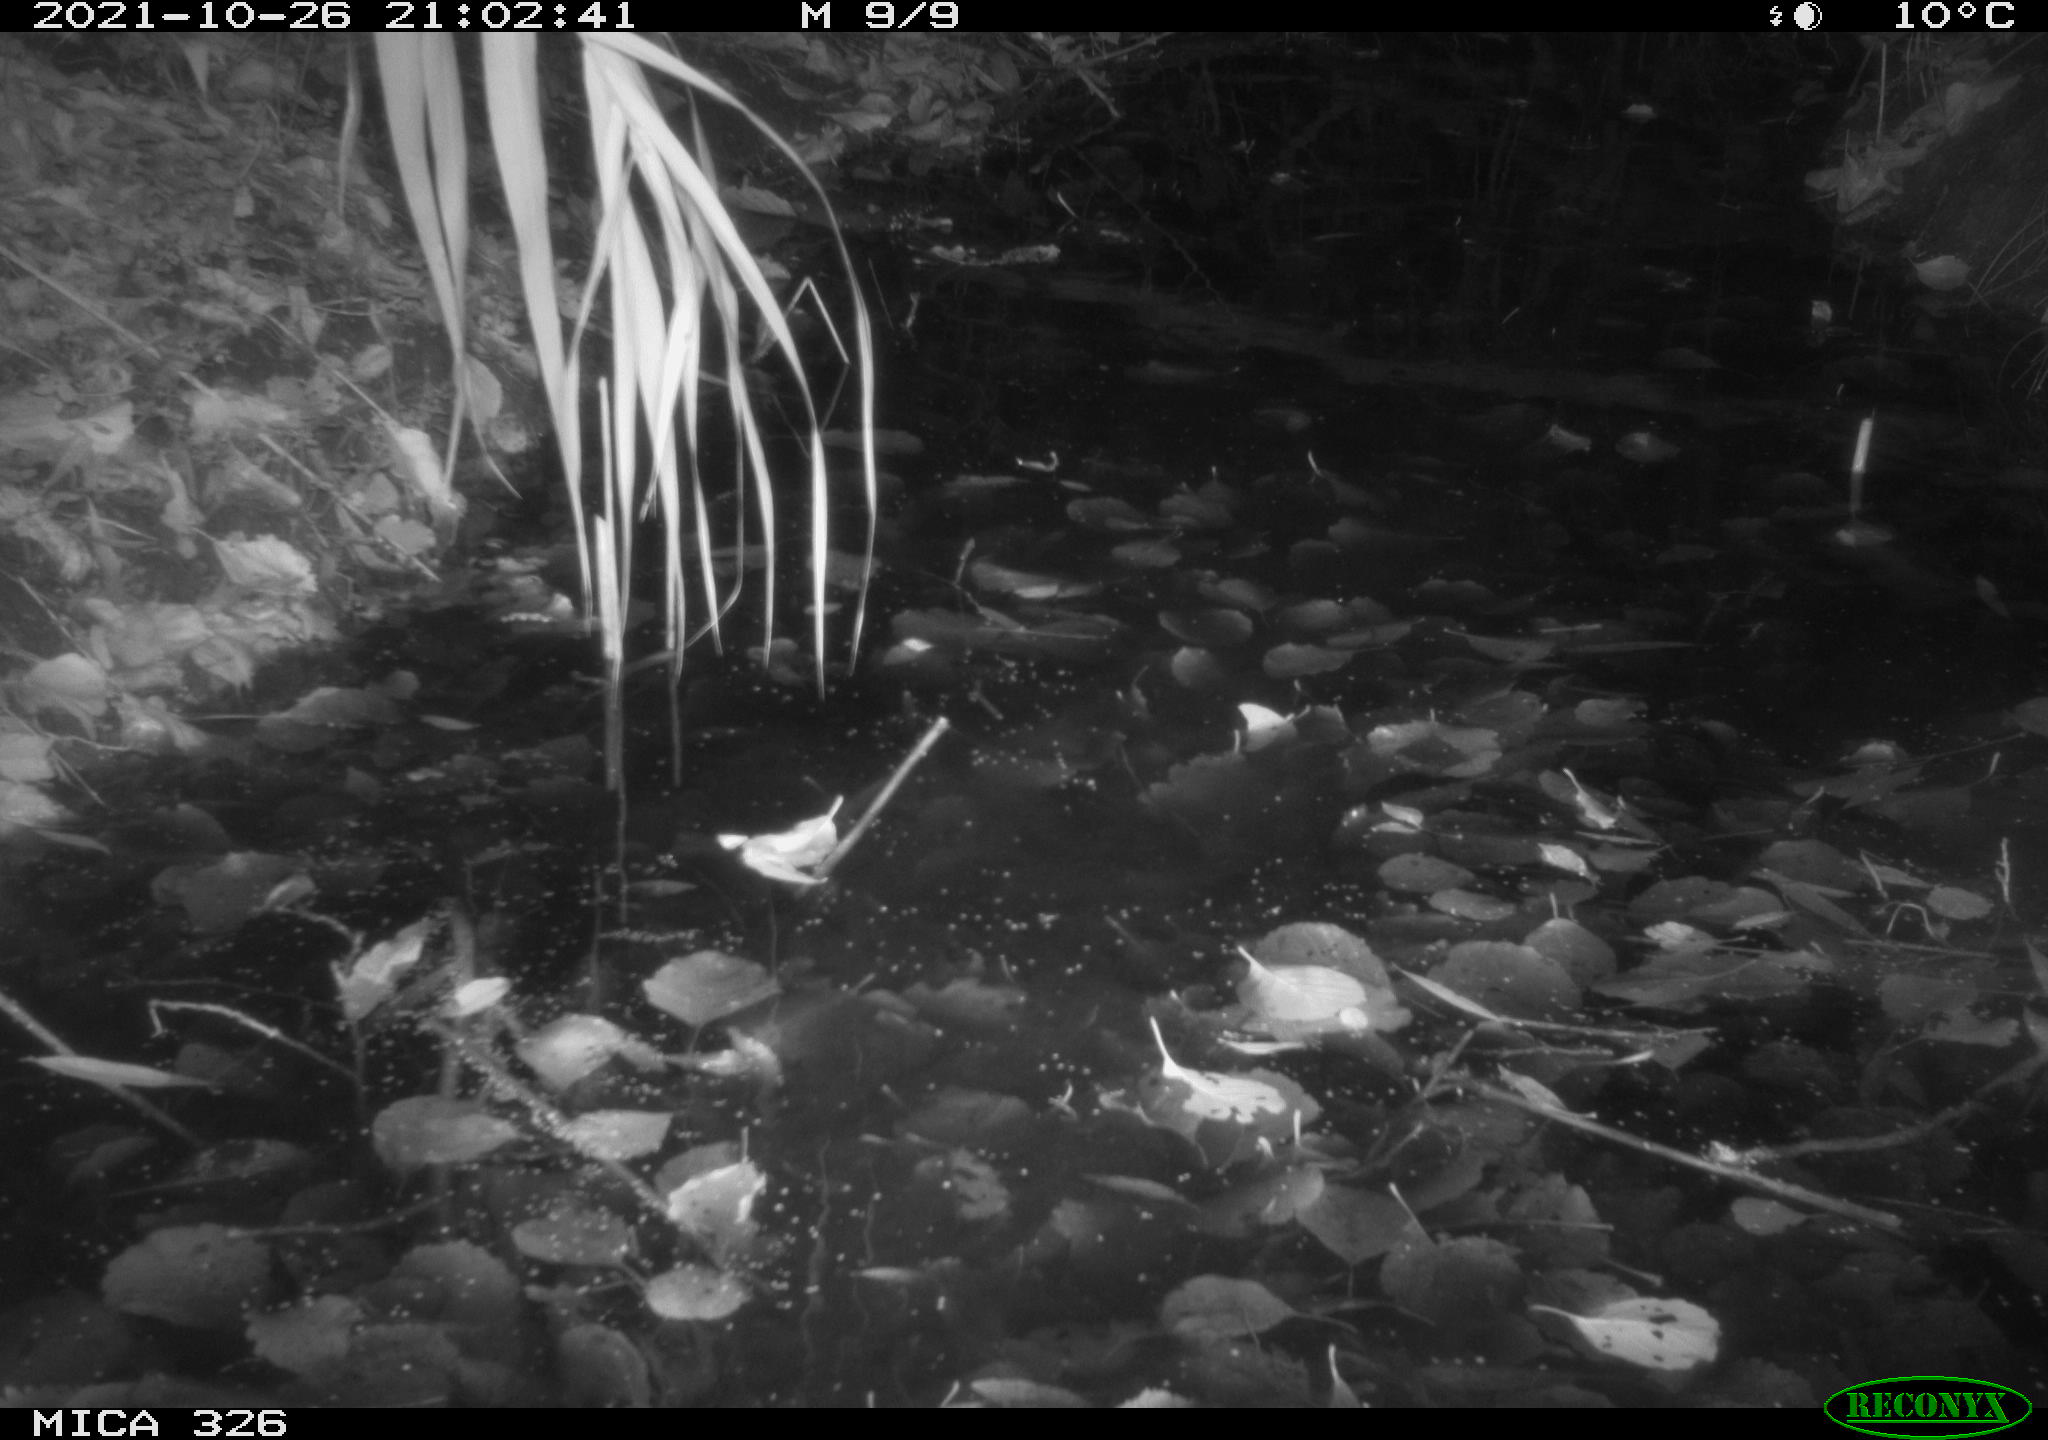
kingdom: Animalia
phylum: Chordata
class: Mammalia
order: Rodentia
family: Myocastoridae
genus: Myocastor
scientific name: Myocastor coypus
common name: Coypu
